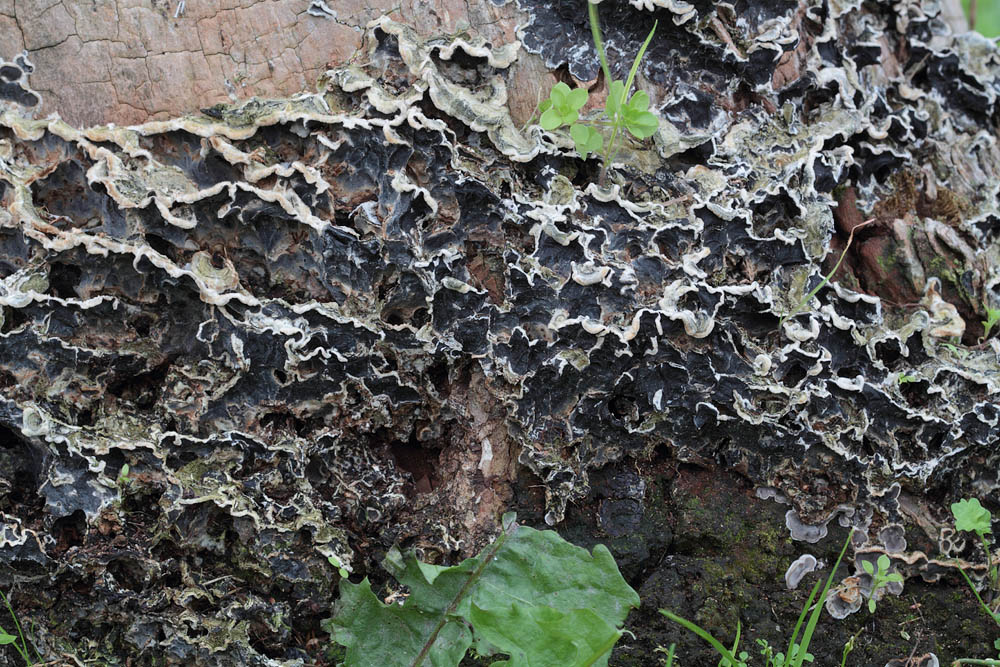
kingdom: Fungi
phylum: Basidiomycota
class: Agaricomycetes
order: Auriculariales
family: Auriculariaceae
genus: Auricularia
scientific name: Auricularia mesenterica
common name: håret judasøre
